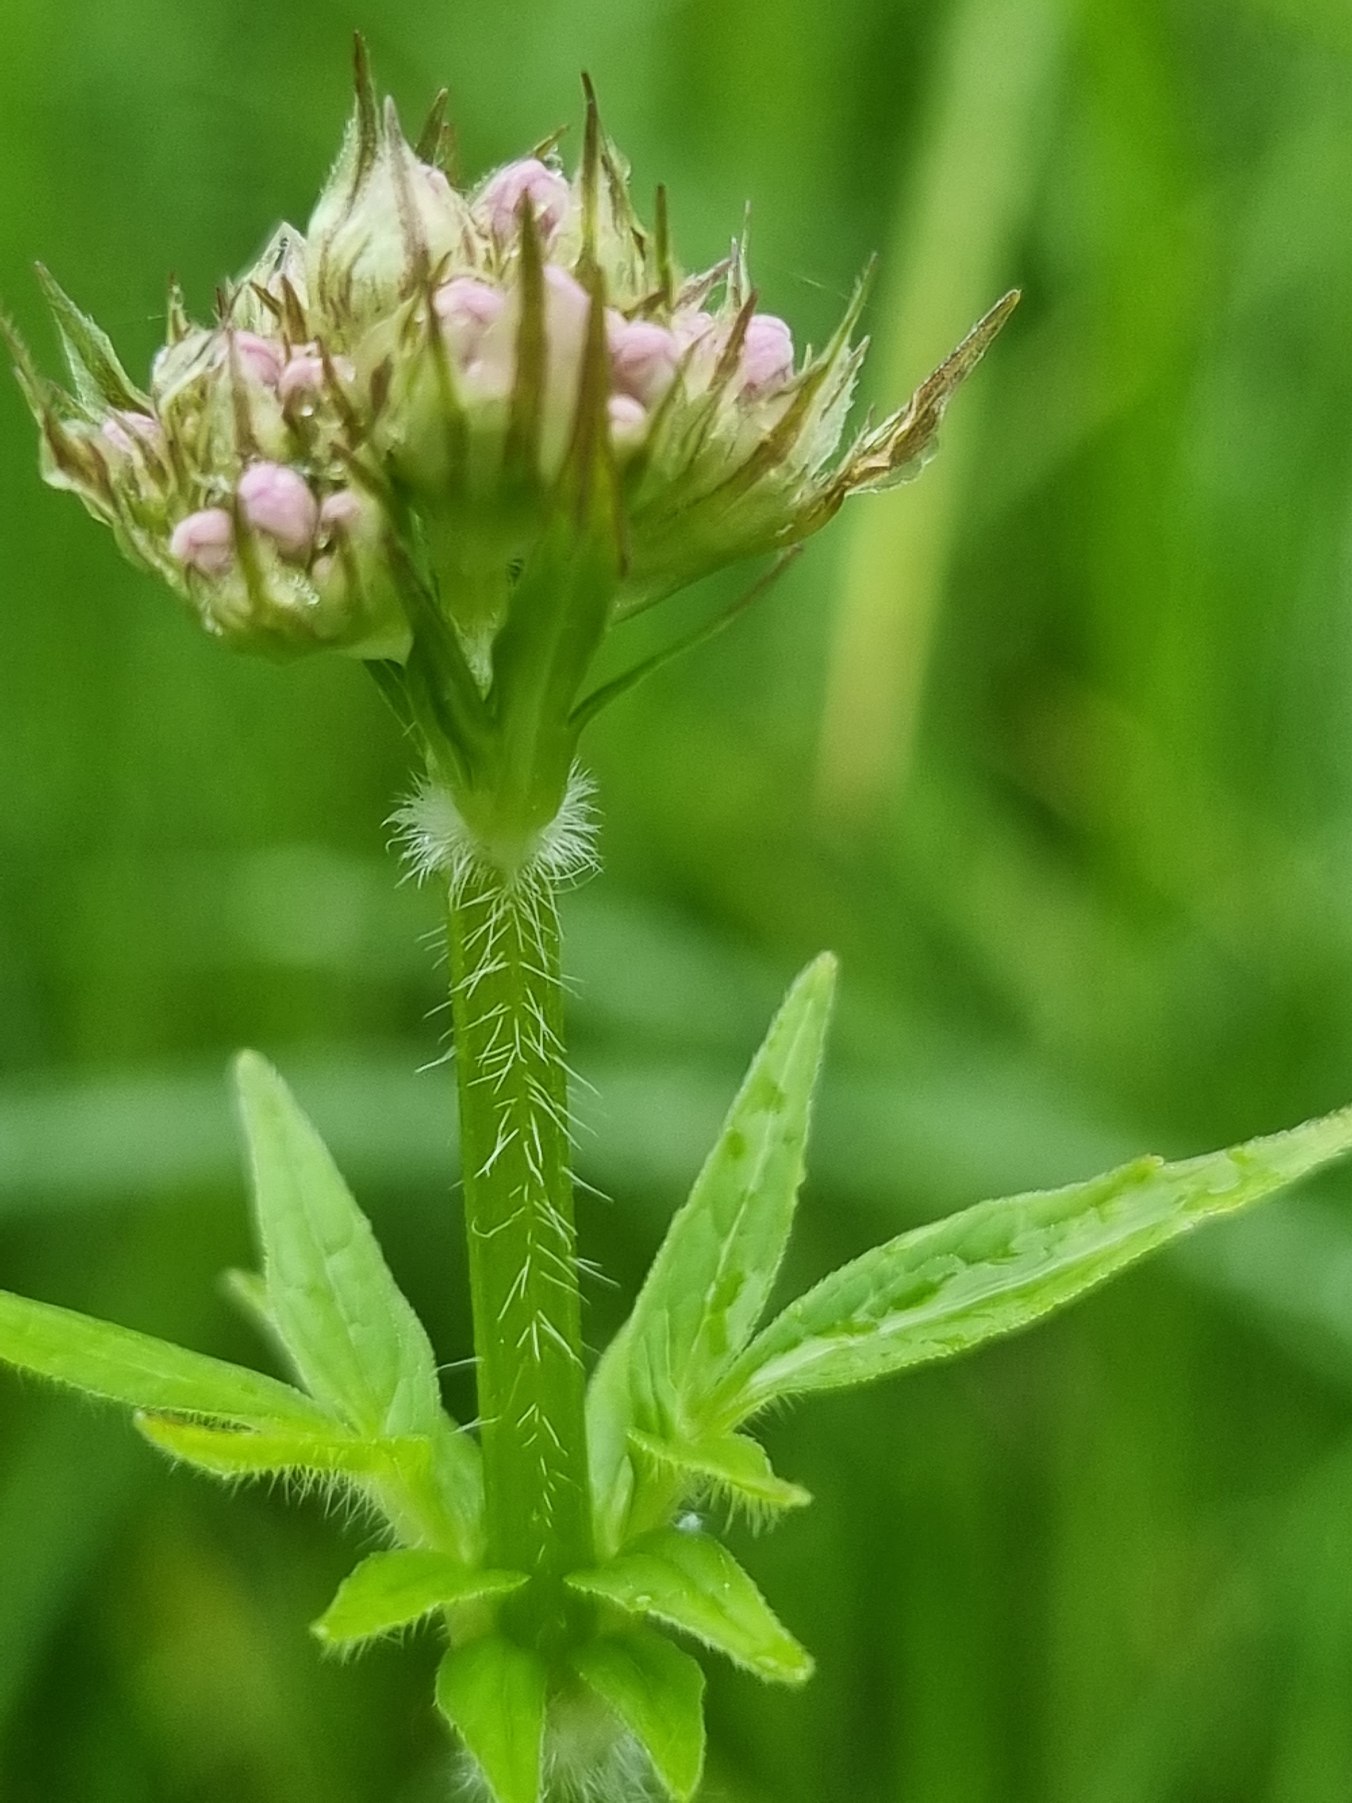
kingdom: Plantae
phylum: Tracheophyta
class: Magnoliopsida
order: Dipsacales
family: Caprifoliaceae
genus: Valeriana
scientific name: Valeriana sambucifolia
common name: Hyldebladet baldrian
